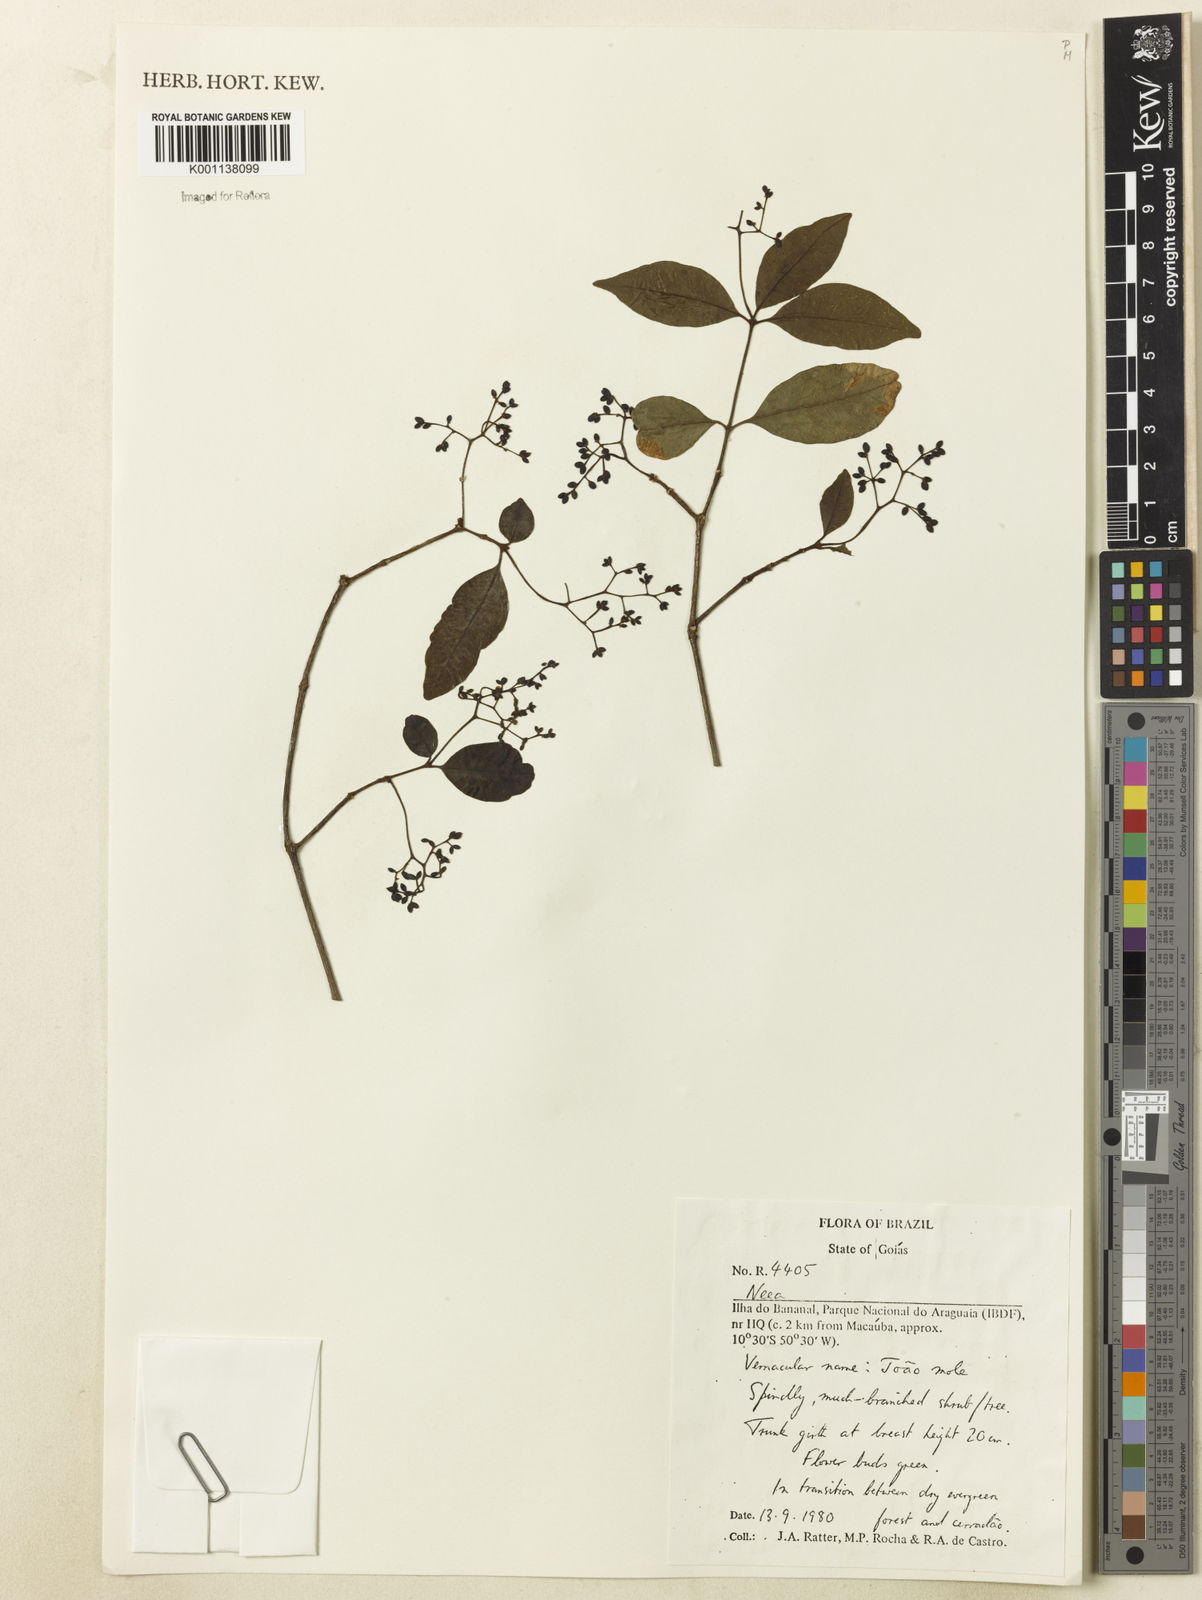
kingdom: Plantae
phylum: Tracheophyta
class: Magnoliopsida
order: Caryophyllales
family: Nyctaginaceae
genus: Neea
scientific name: Neea
